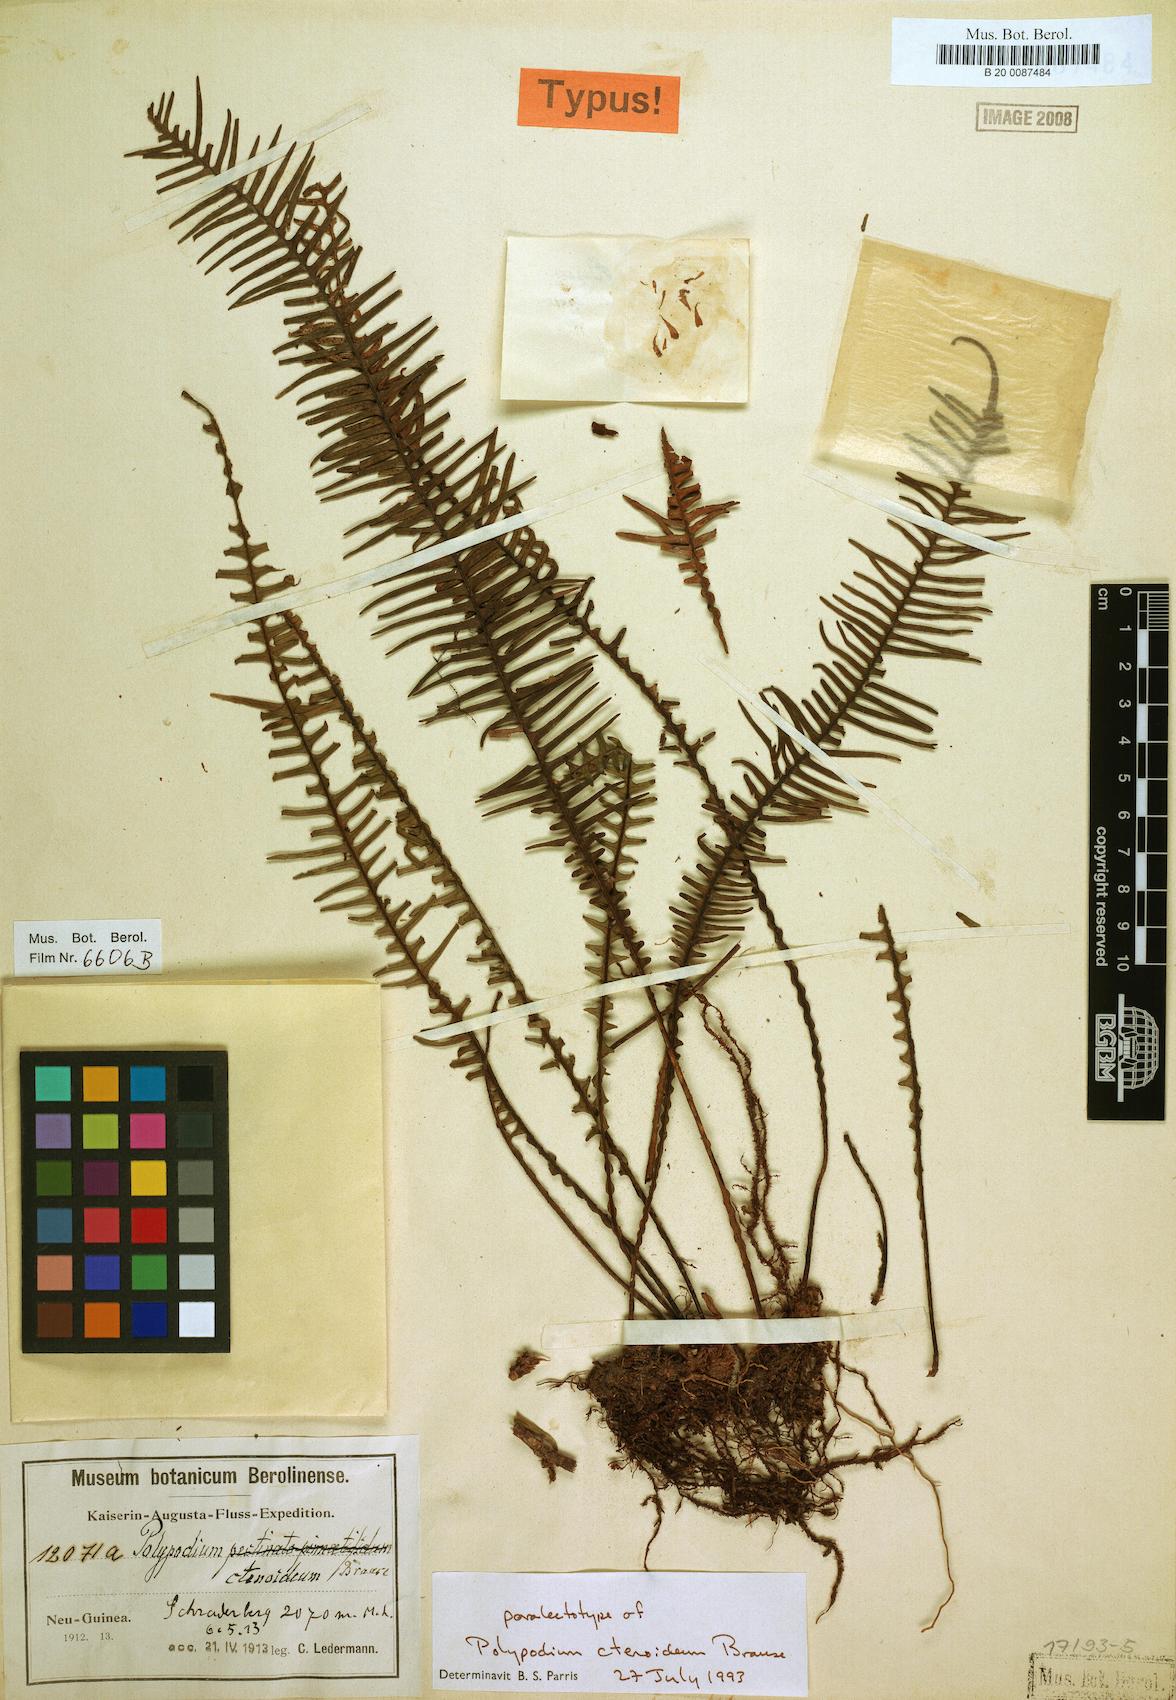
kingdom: Plantae
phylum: Tracheophyta
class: Polypodiopsida
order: Polypodiales
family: Polypodiaceae
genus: Oreogrammitis
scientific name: Oreogrammitis ctenoidea
